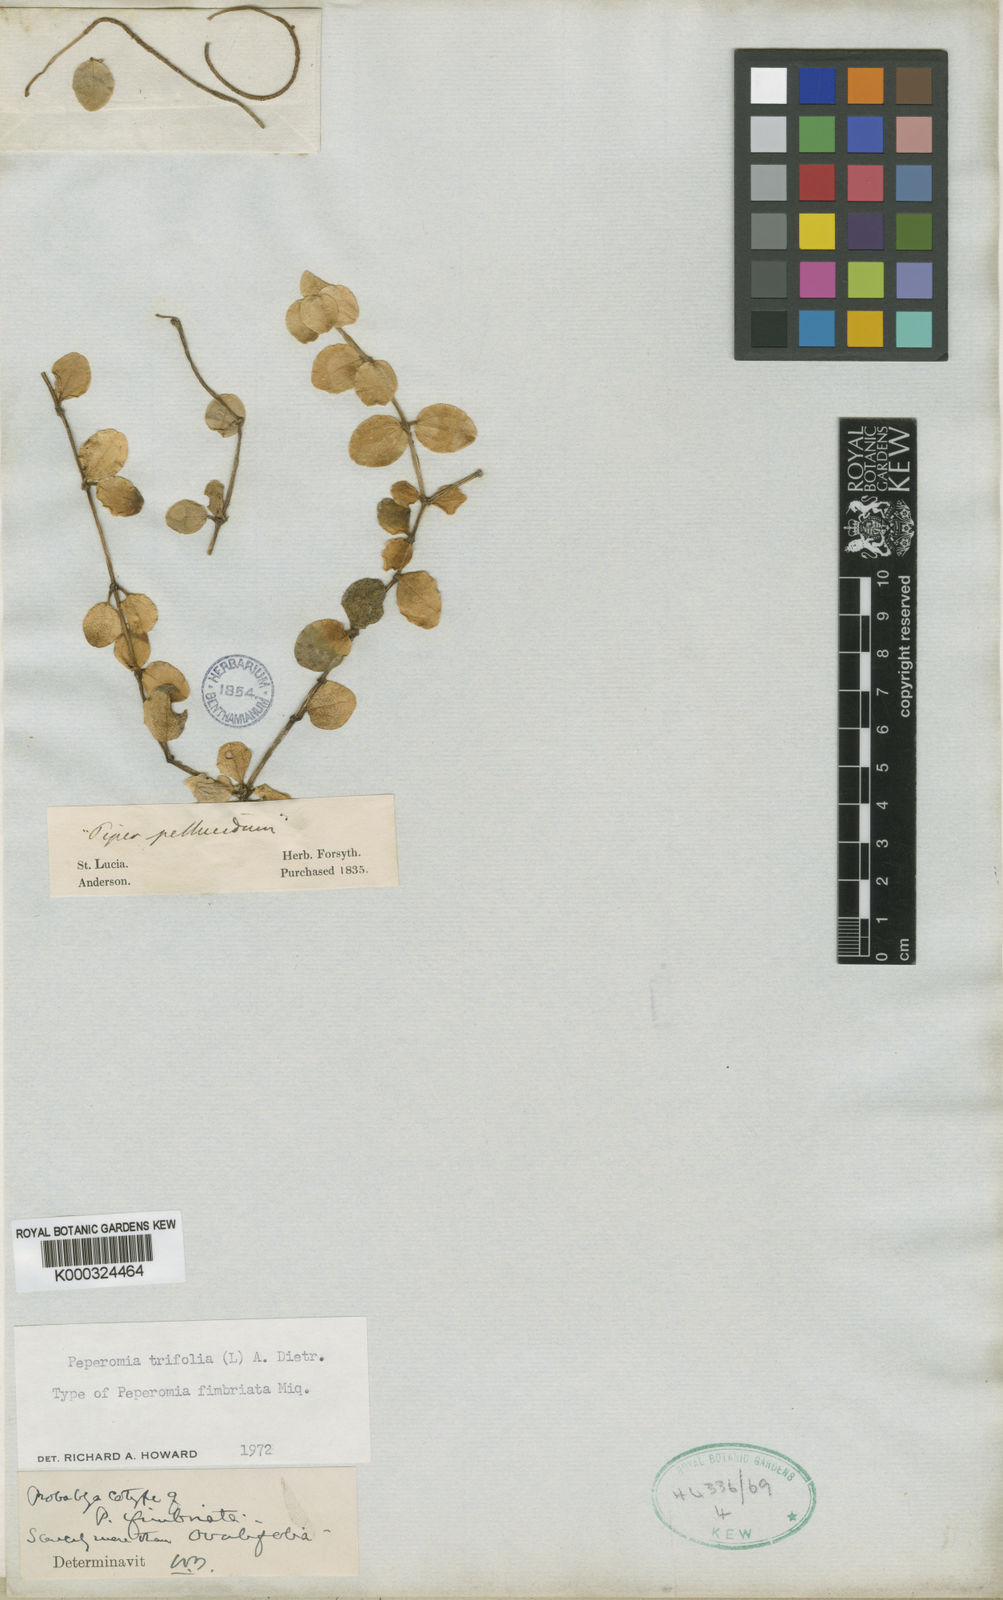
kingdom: Plantae
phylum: Tracheophyta
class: Magnoliopsida
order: Piperales
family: Piperaceae
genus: Peperomia
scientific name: Peperomia obtusifolia
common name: Baby rubberplant
